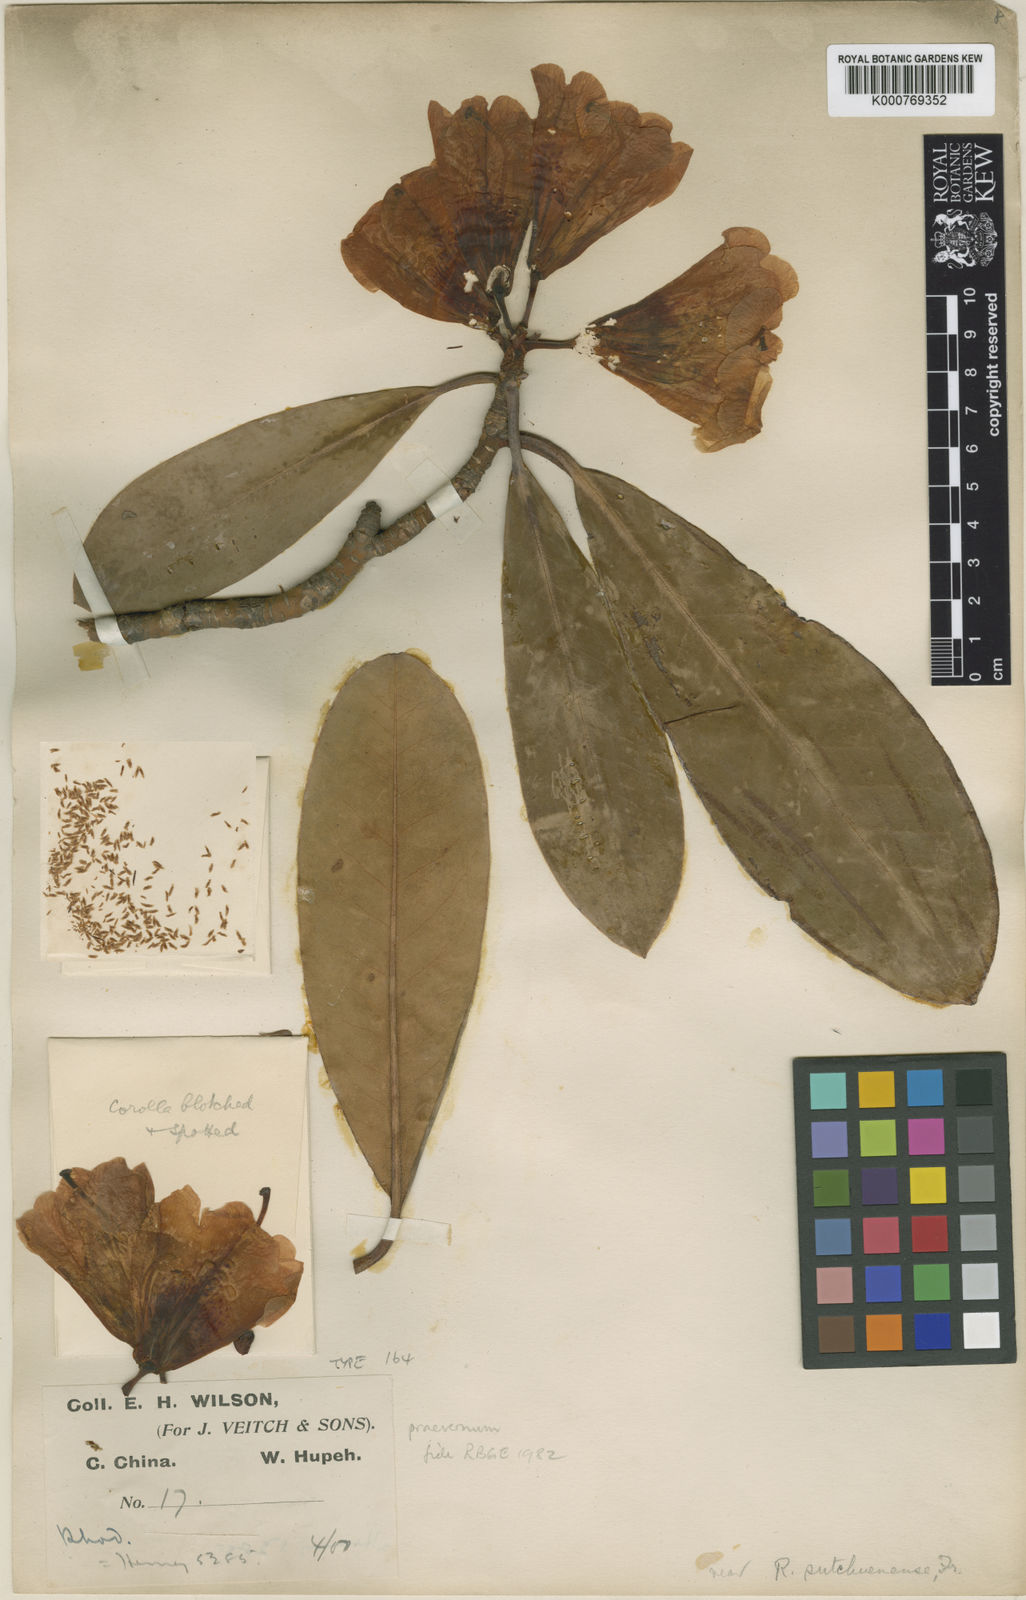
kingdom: Plantae
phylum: Tracheophyta
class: Magnoliopsida
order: Ericales
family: Ericaceae
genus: Rhododendron
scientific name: Rhododendron praevernum
